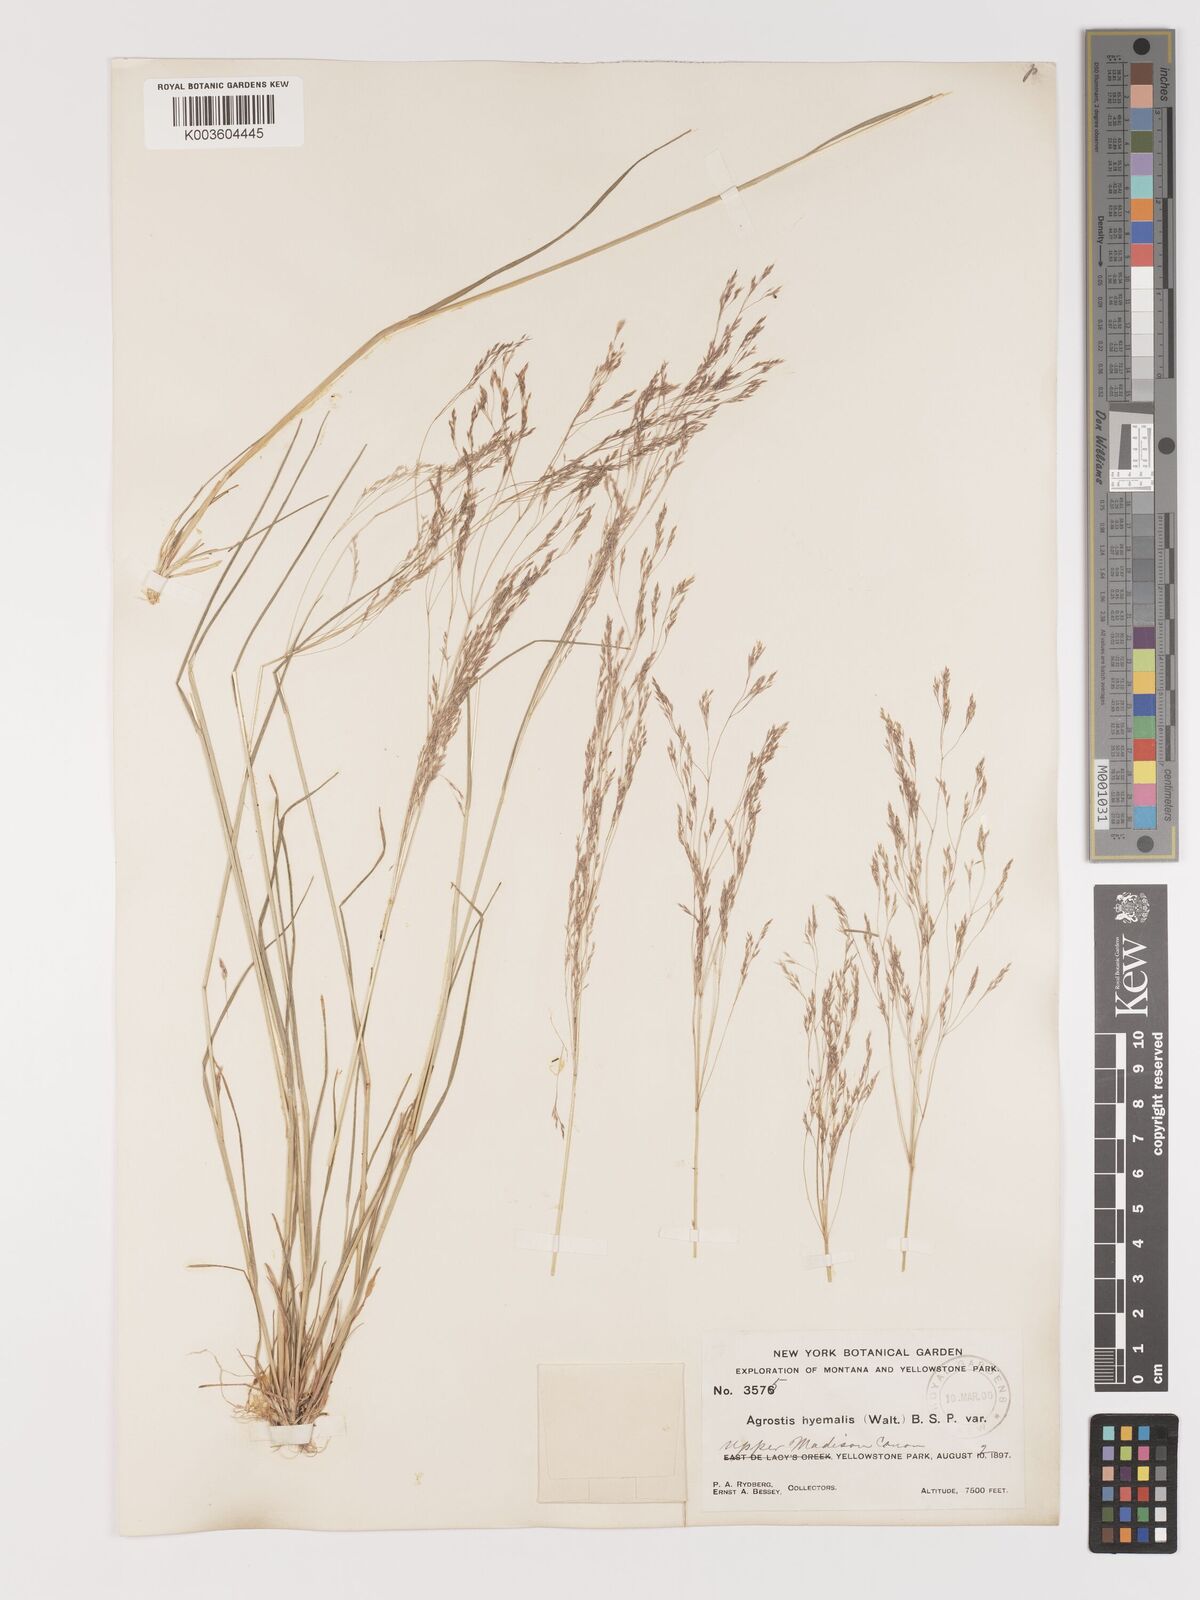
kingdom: Plantae
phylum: Tracheophyta
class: Liliopsida
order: Poales
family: Poaceae
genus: Agrostis
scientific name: Agrostis hyemalis
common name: Small bent
